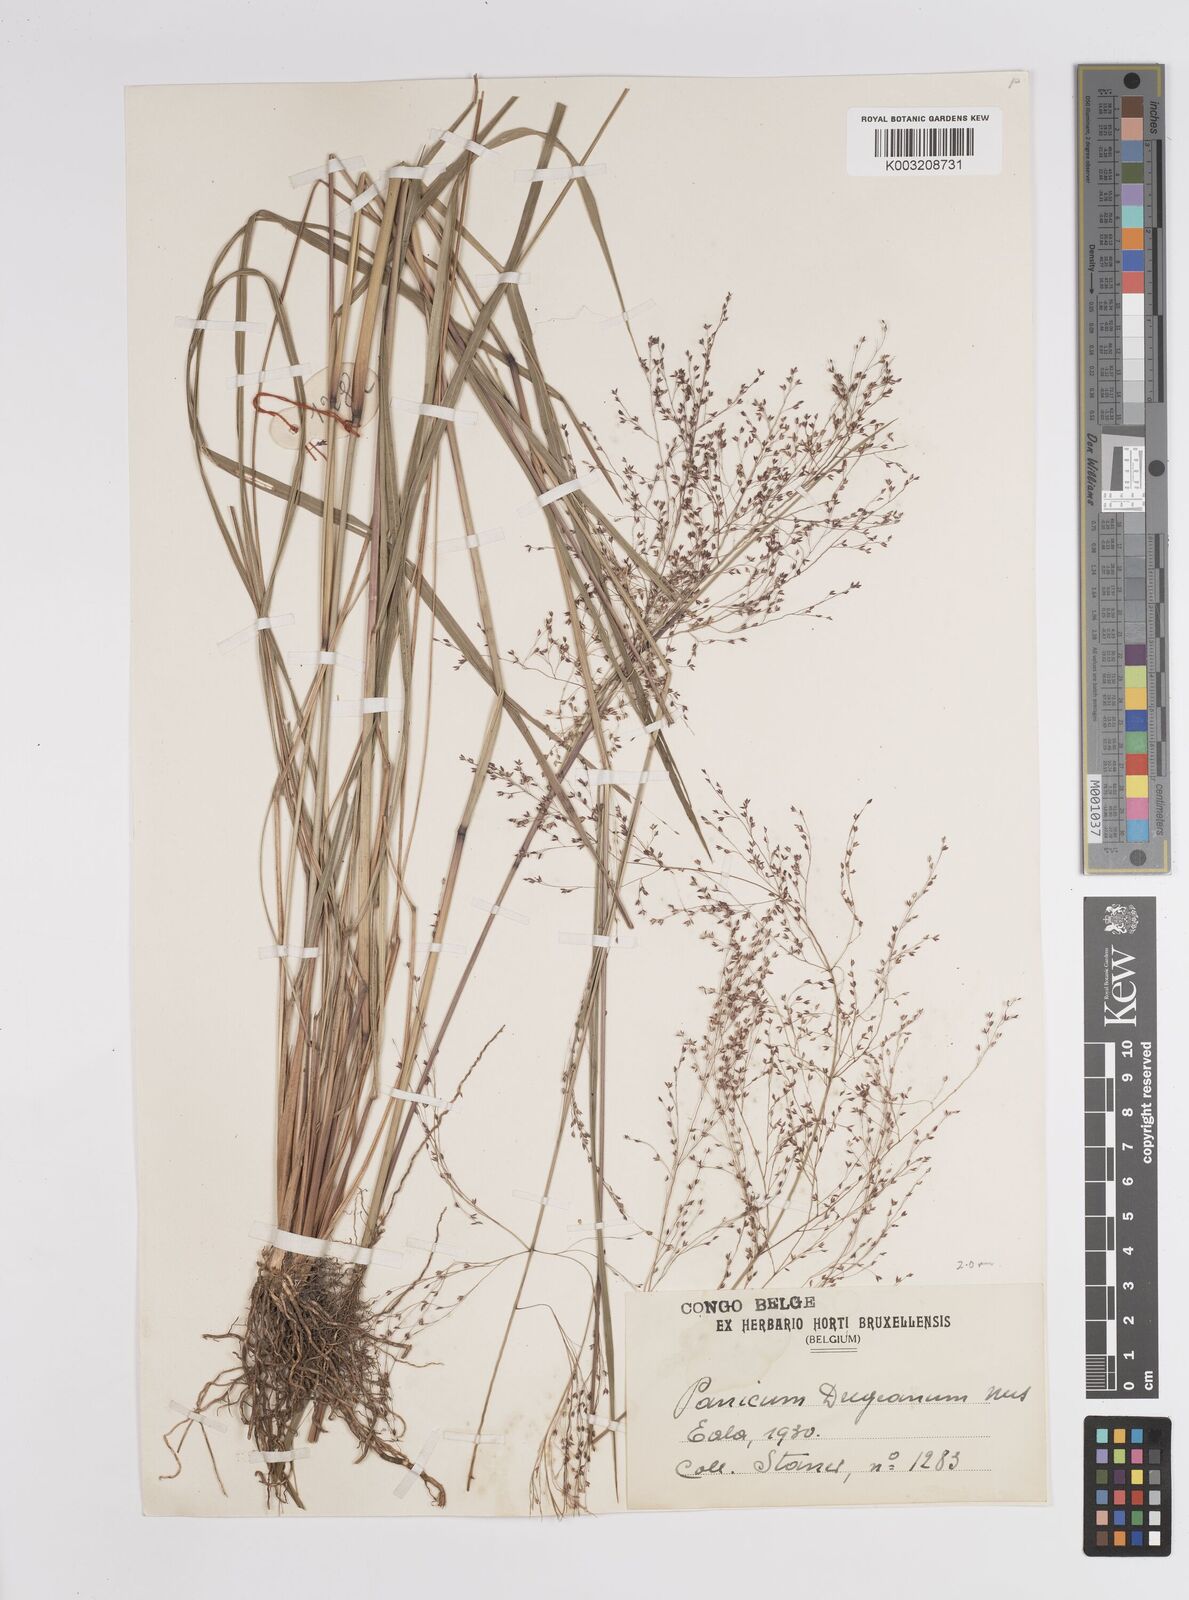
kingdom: Plantae
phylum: Tracheophyta
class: Liliopsida
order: Poales
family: Poaceae
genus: Panicum
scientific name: Panicum dregeanum
